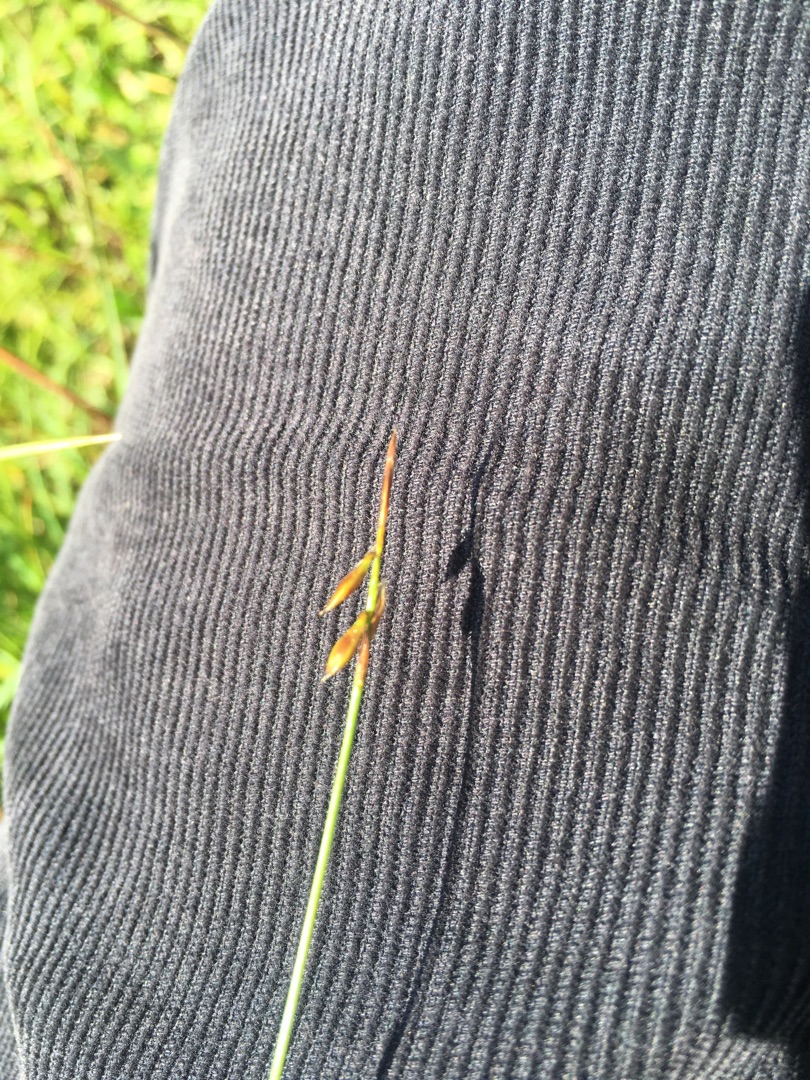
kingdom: Plantae
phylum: Tracheophyta
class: Liliopsida
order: Poales
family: Cyperaceae
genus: Carex
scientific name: Carex pulicaris
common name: Loppe-star
